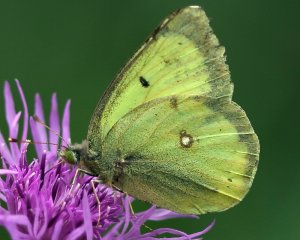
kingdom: Animalia
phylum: Arthropoda
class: Insecta
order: Lepidoptera
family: Pieridae
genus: Colias
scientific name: Colias philodice
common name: Clouded Sulphur
